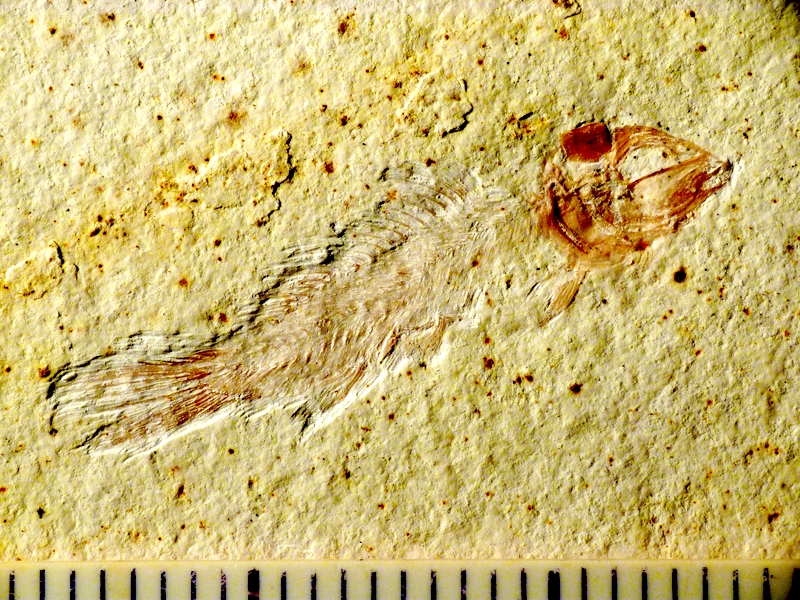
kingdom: Animalia
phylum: Chordata
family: Macrosemiidae
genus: Notagogus
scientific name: Notagogus denticulatus
